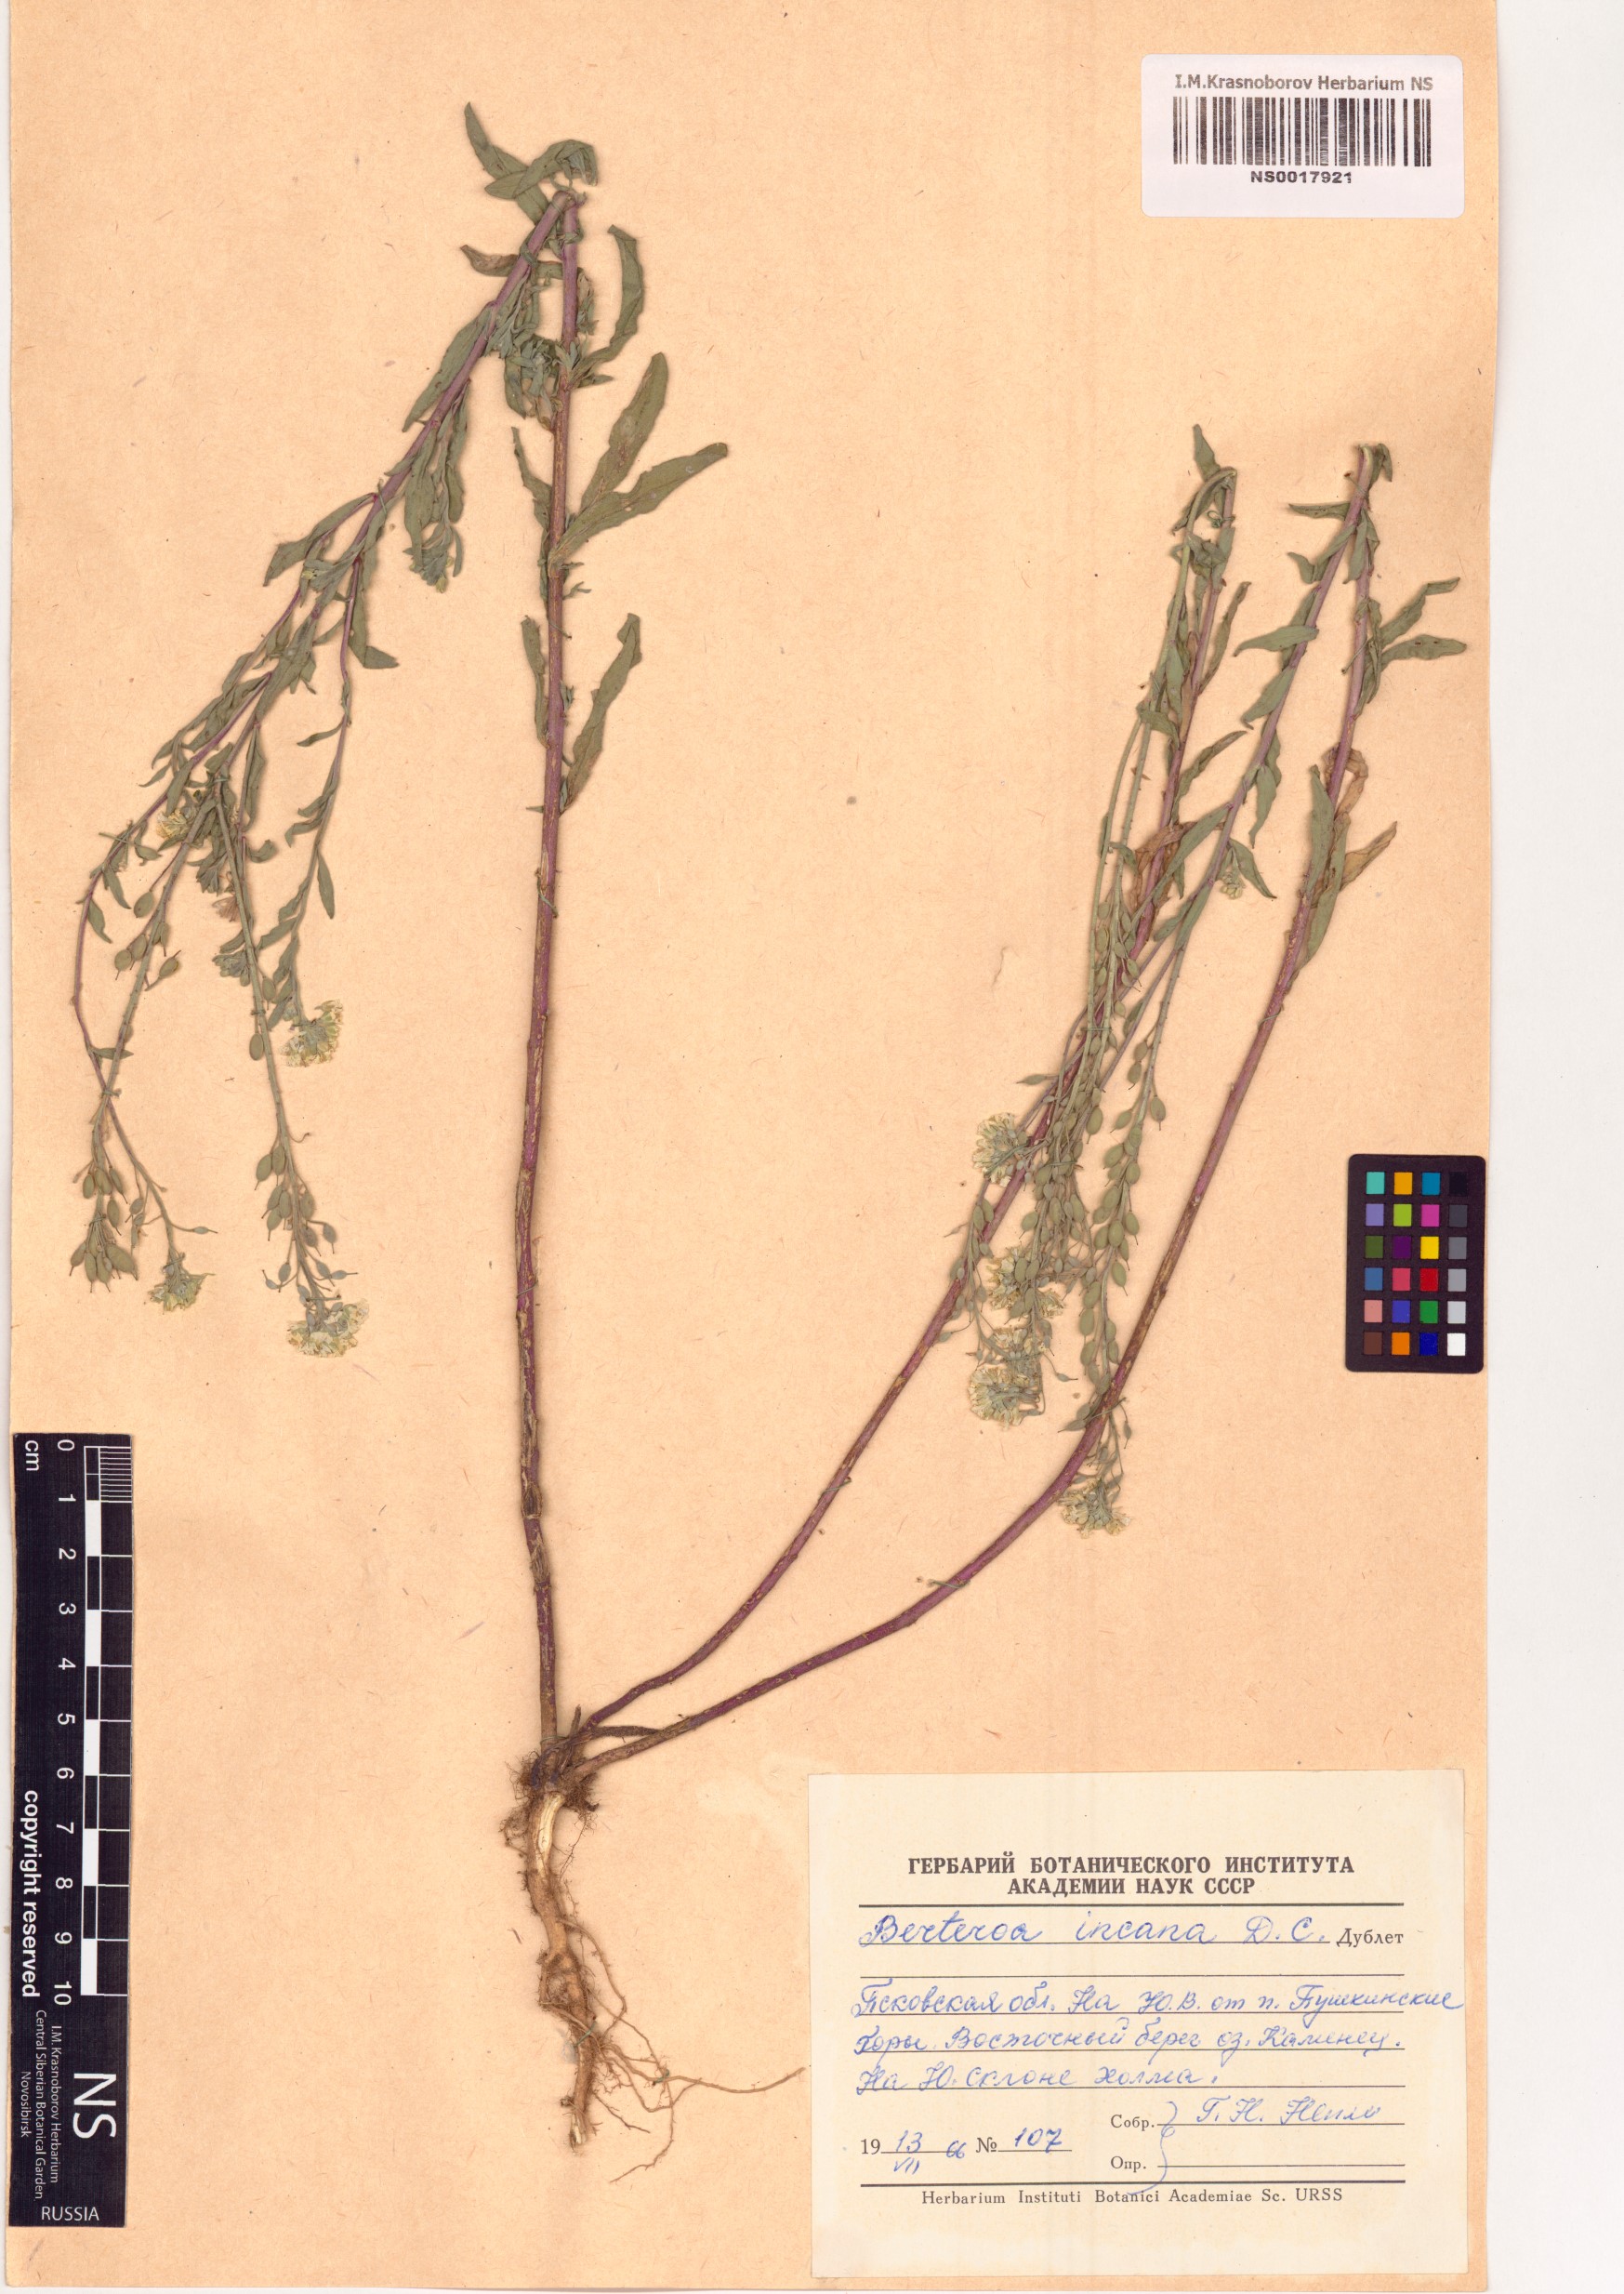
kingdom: Plantae
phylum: Tracheophyta
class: Magnoliopsida
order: Brassicales
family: Brassicaceae
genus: Berteroa
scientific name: Berteroa incana
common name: Hoary alison
